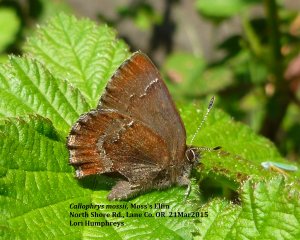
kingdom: Animalia
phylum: Arthropoda
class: Insecta
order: Lepidoptera
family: Lycaenidae
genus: Callophrys
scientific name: Callophrys mossii
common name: Moss' Elfin
